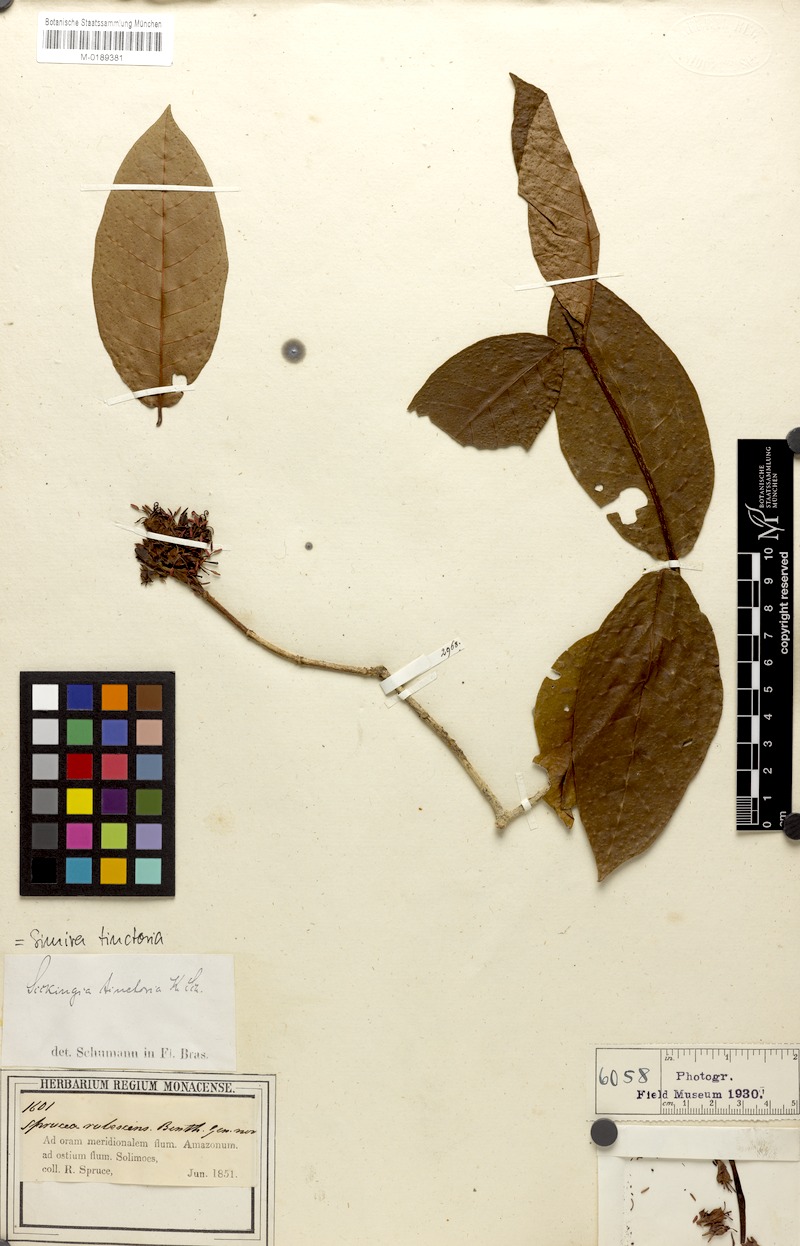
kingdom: Plantae
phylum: Tracheophyta
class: Magnoliopsida
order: Gentianales
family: Rubiaceae
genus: Simira
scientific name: Simira rubescens
